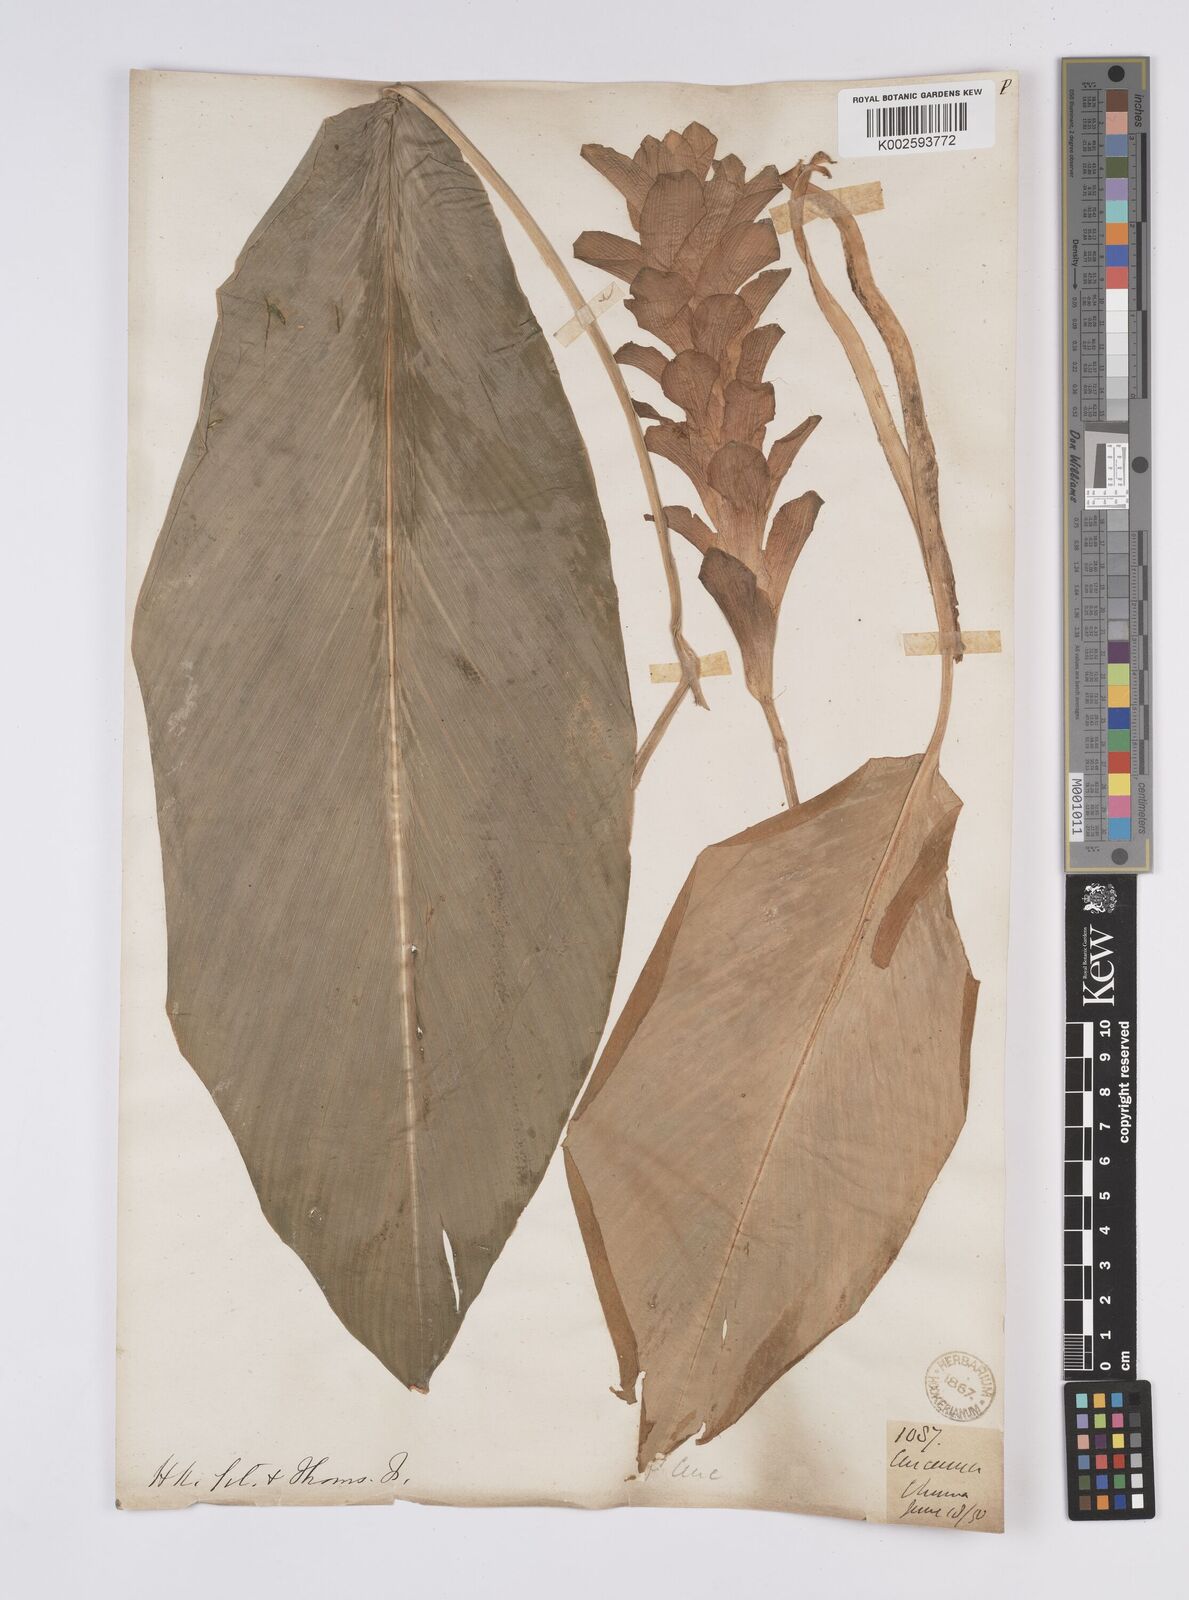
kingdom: Plantae
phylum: Tracheophyta
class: Liliopsida
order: Zingiberales
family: Zingiberaceae
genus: Curcuma
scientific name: Curcuma
